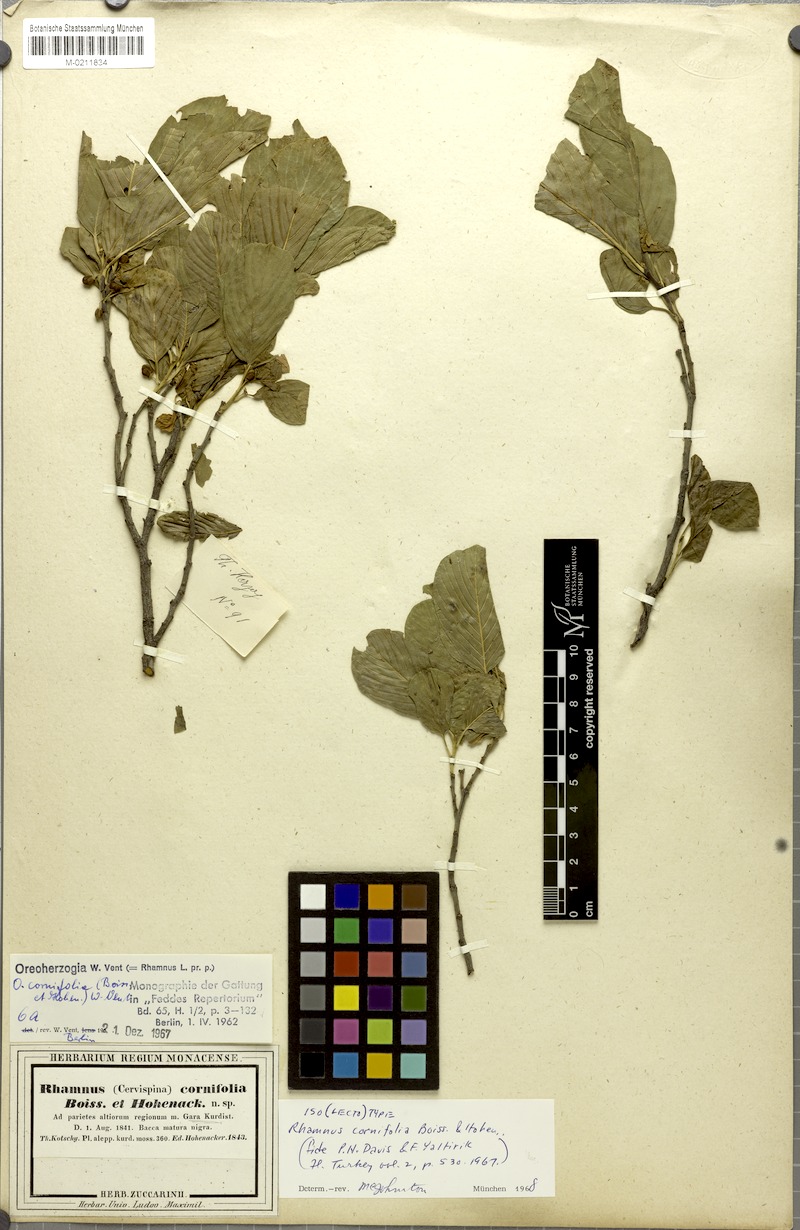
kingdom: Plantae
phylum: Tracheophyta
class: Magnoliopsida
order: Rosales
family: Rhamnaceae
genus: Atadinus
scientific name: Atadinus cornifolius
